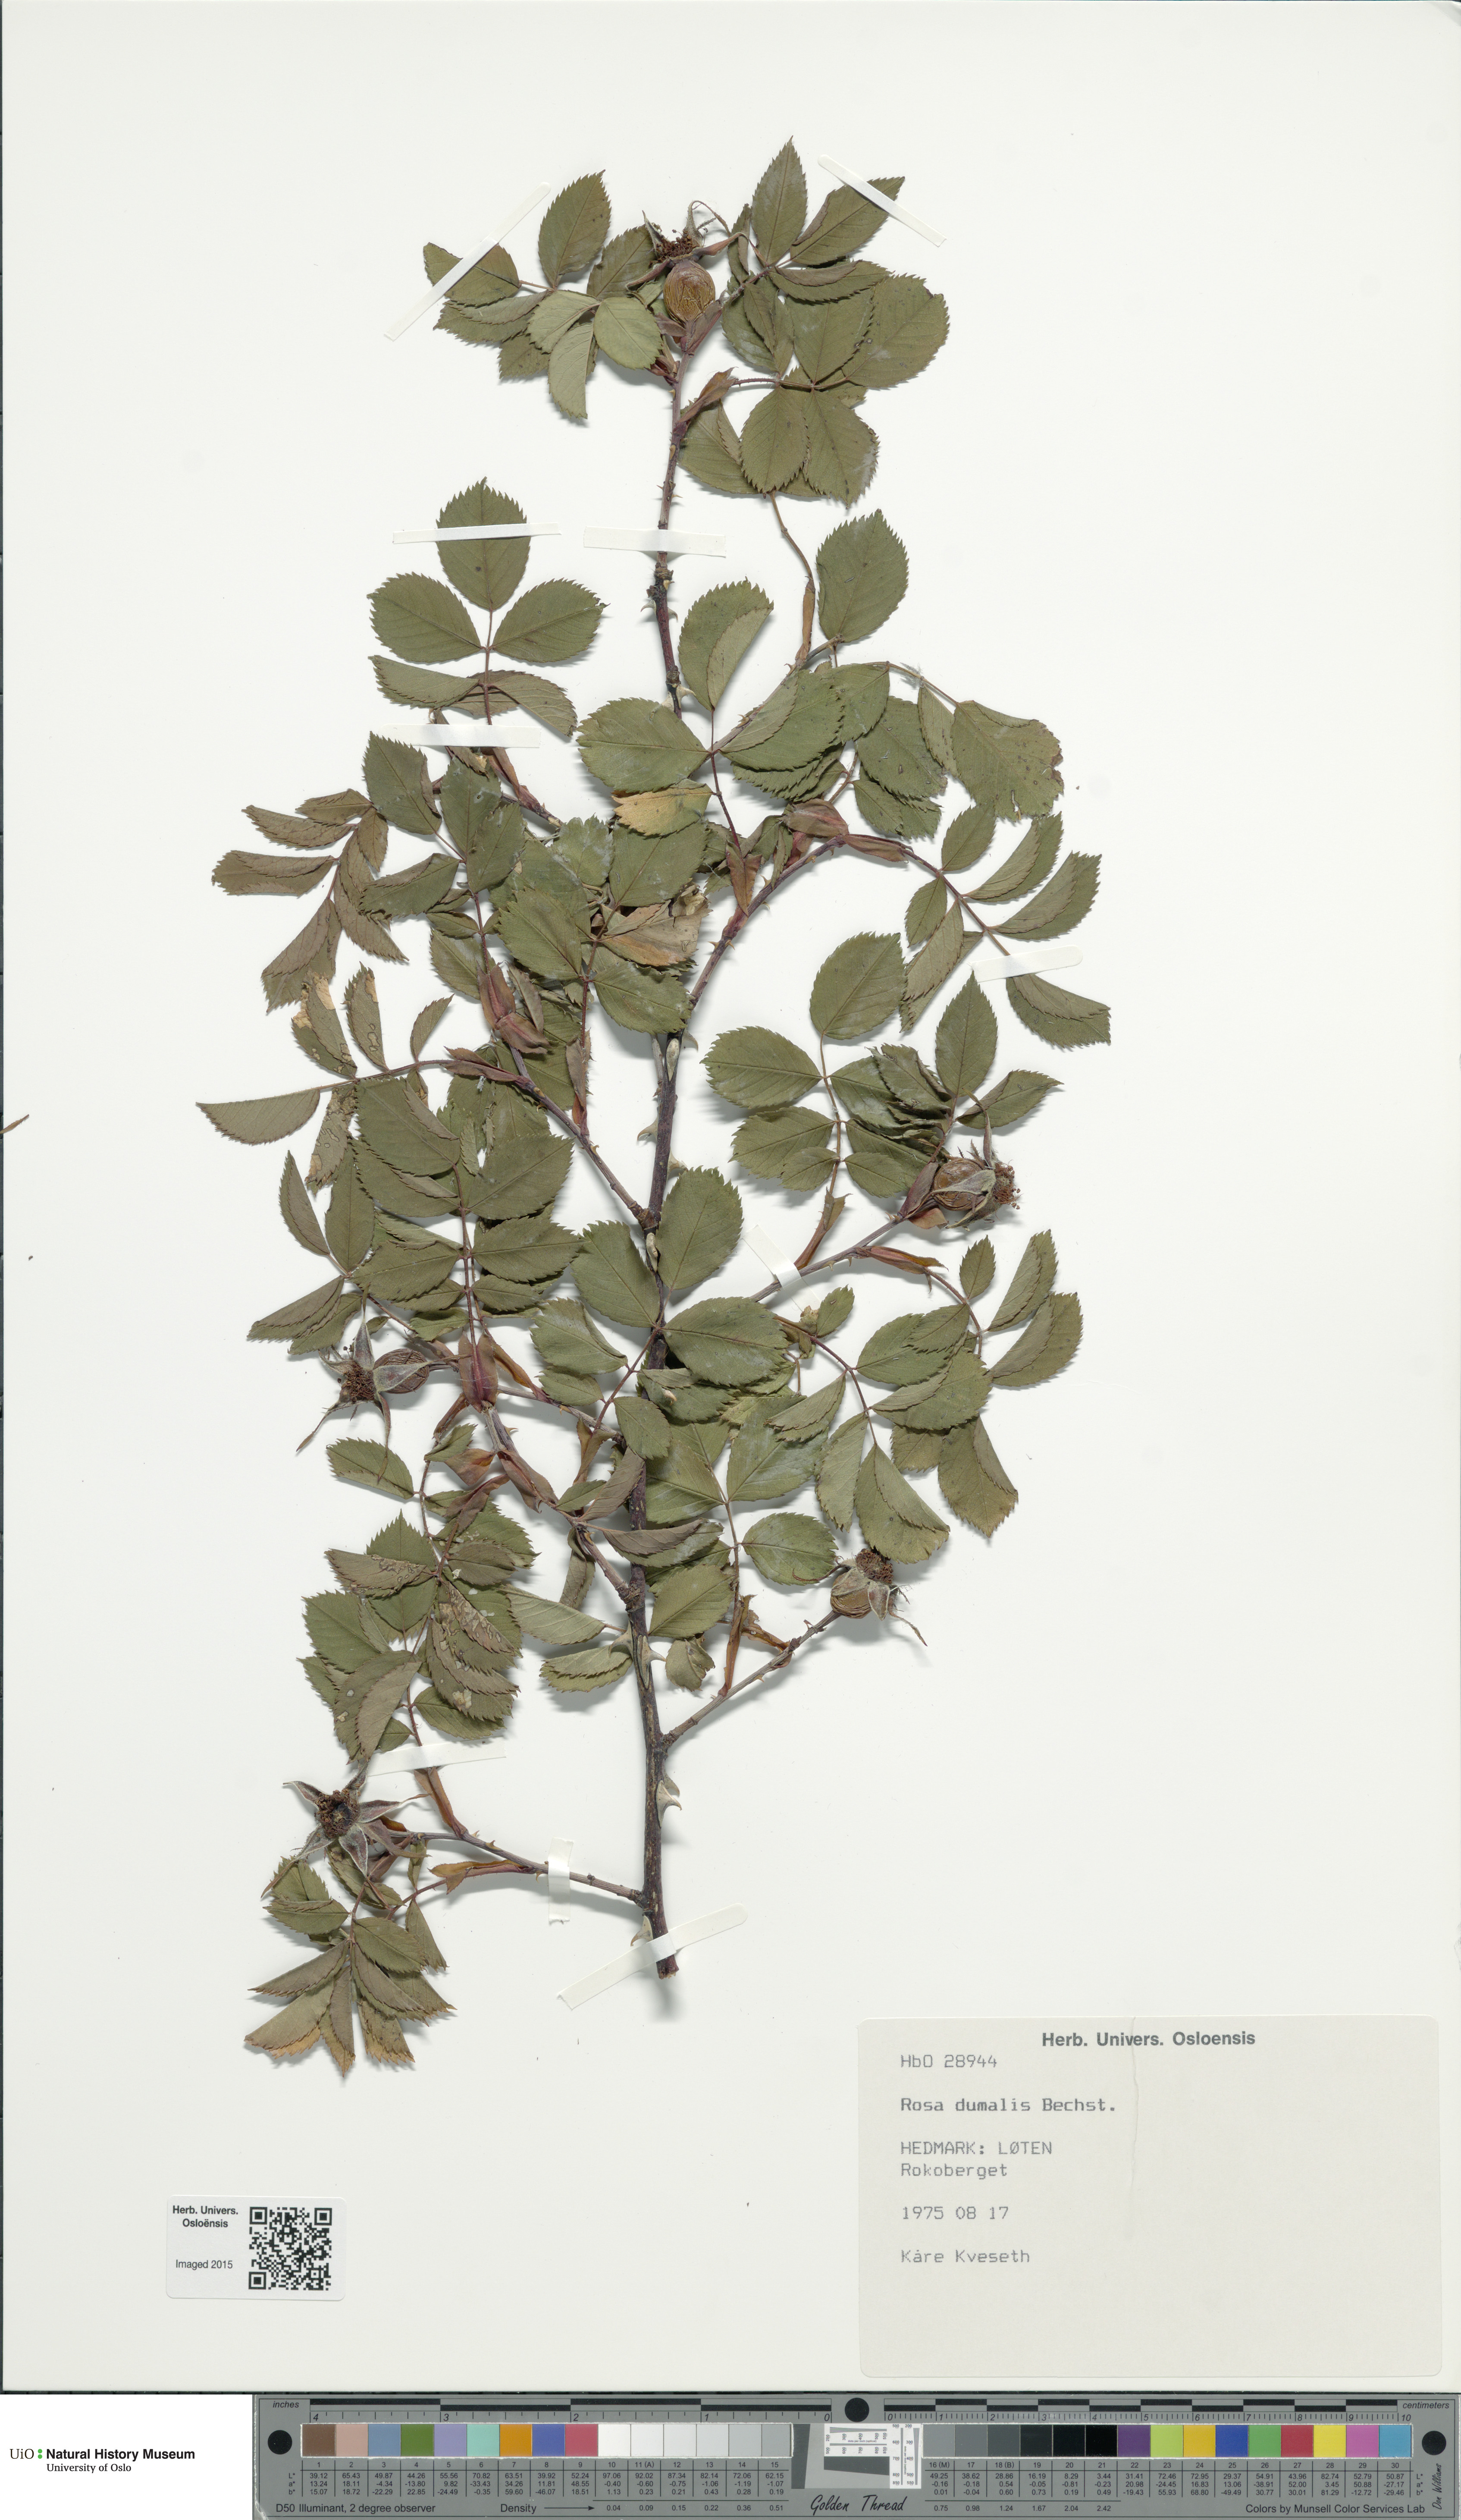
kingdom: Plantae
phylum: Tracheophyta
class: Magnoliopsida
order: Rosales
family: Rosaceae
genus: Rosa
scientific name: Rosa dumalis
